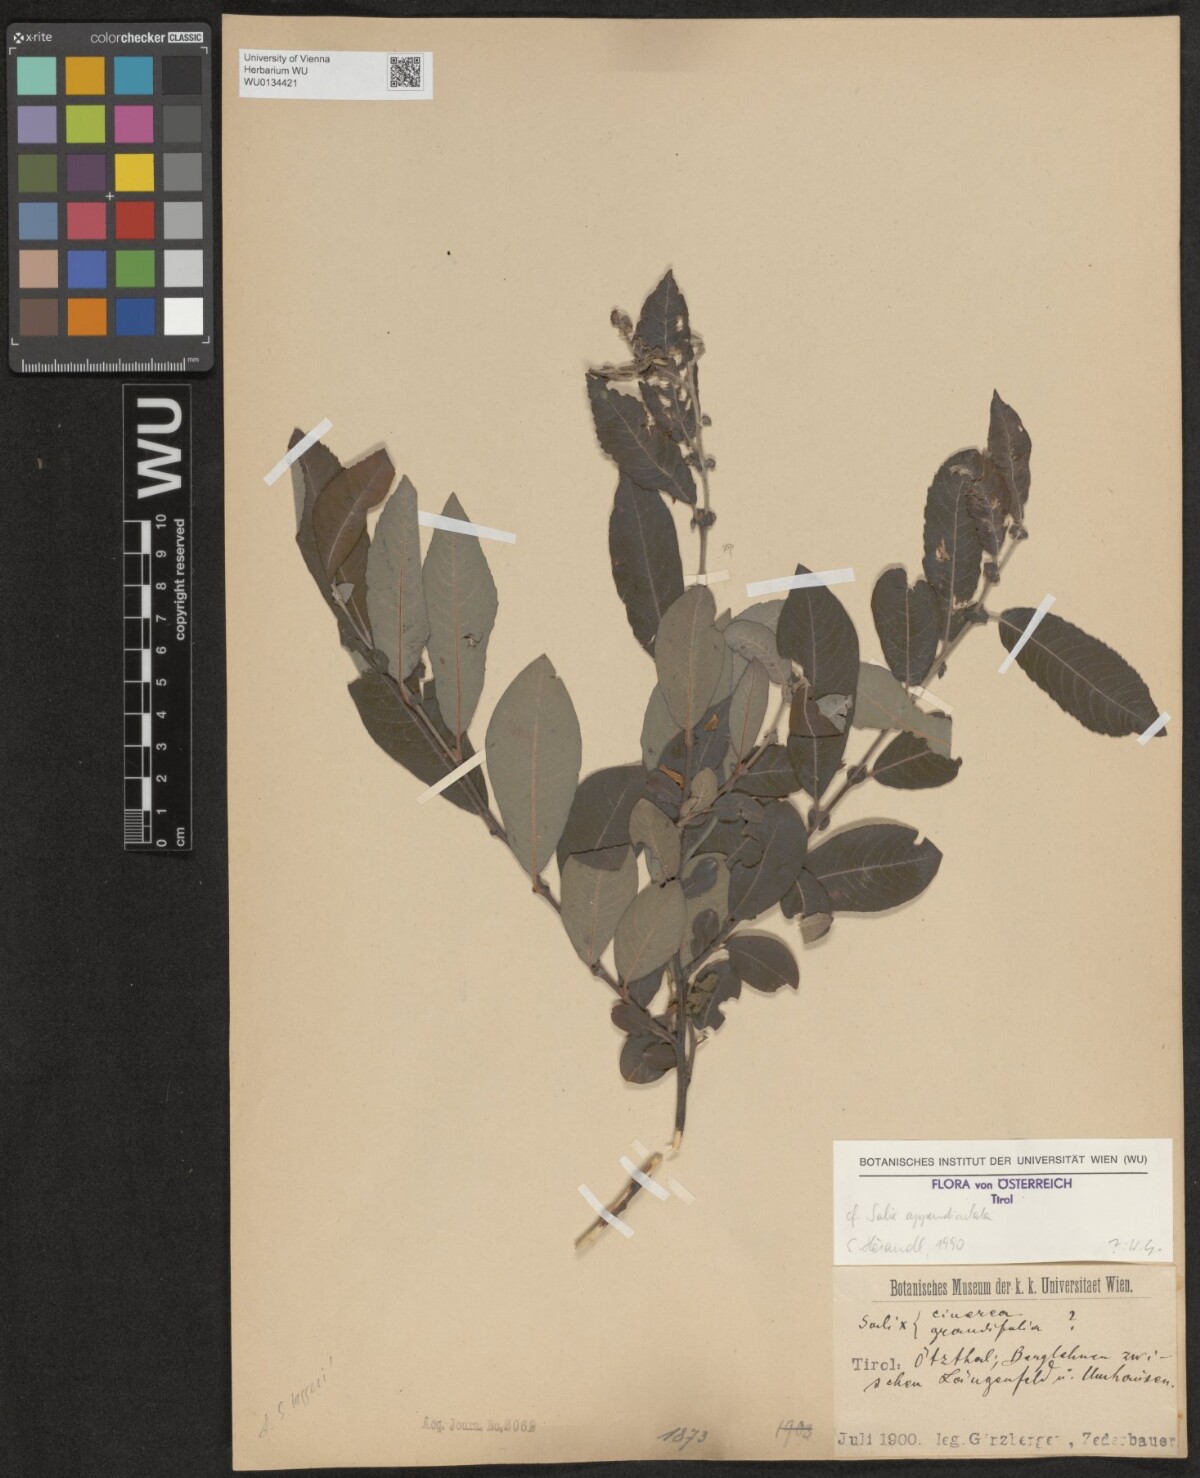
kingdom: Plantae
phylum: Tracheophyta
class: Magnoliopsida
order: Malpighiales
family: Salicaceae
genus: Salix
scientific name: Salix appendiculata
